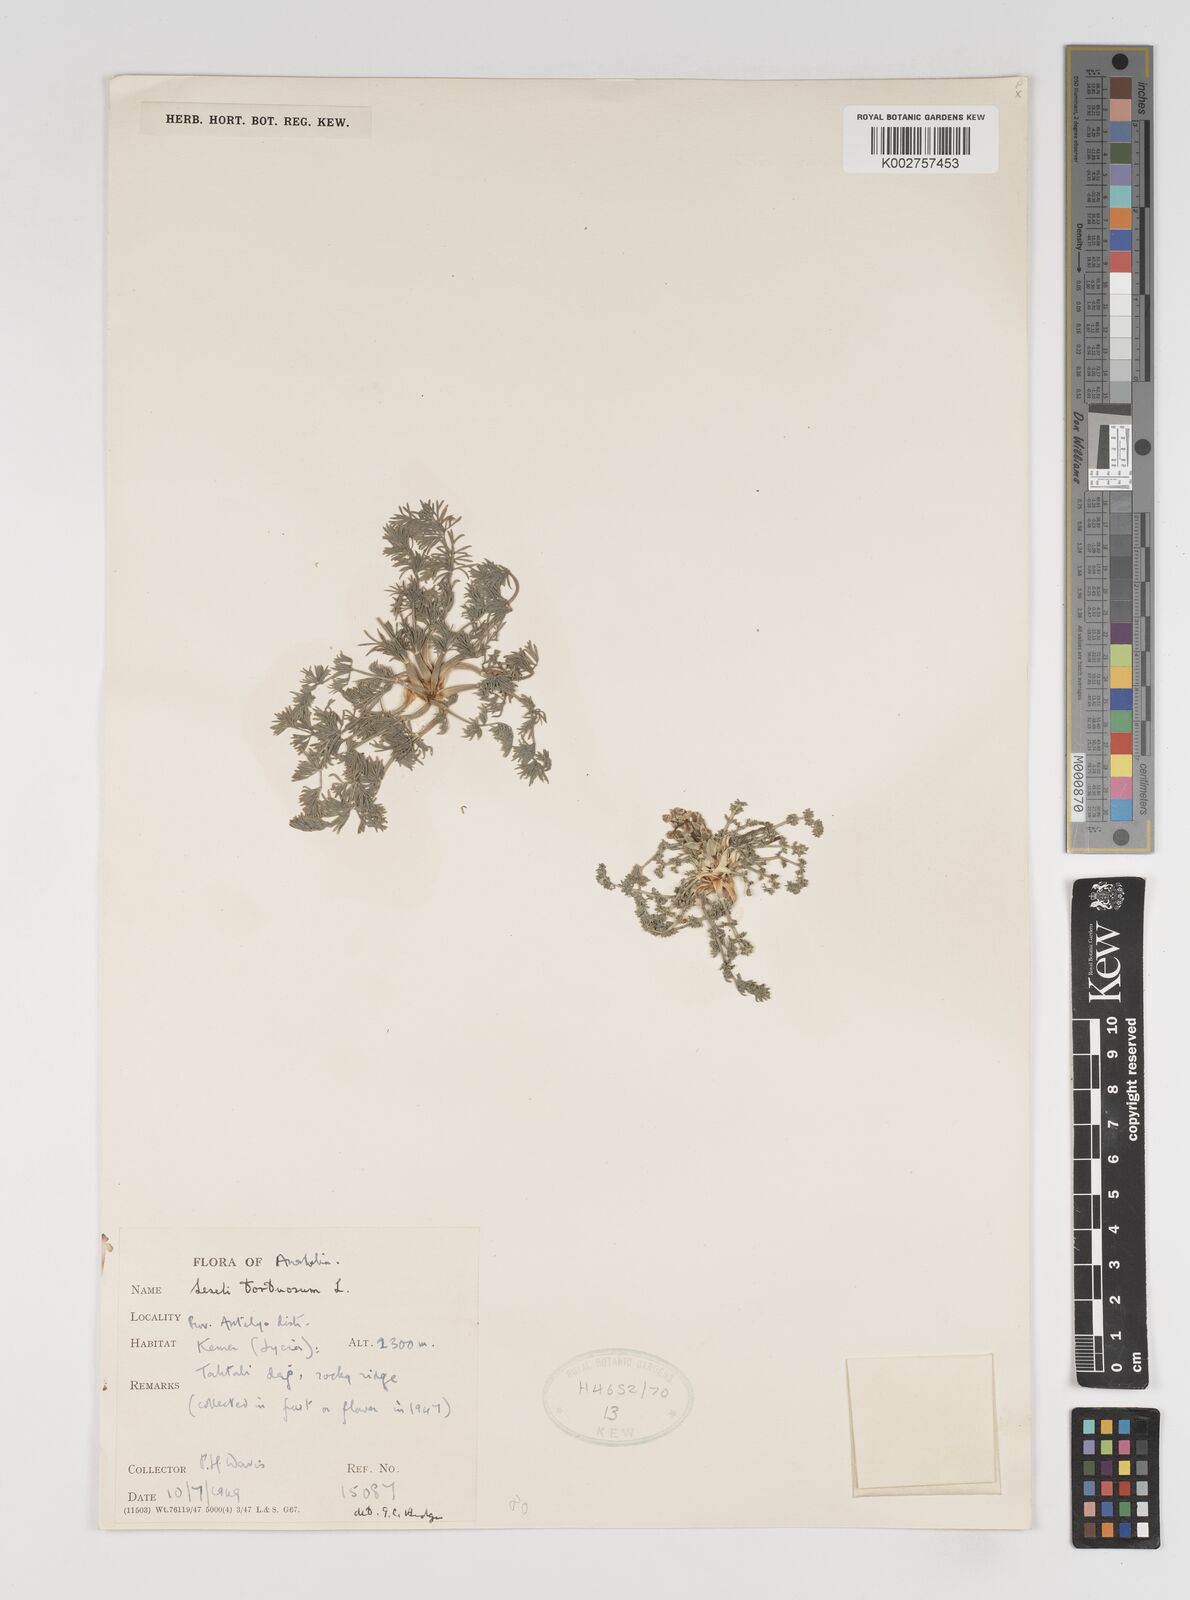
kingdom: Plantae
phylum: Tracheophyta
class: Magnoliopsida
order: Apiales
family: Apiaceae
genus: Seseli
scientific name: Seseli hartvigii
